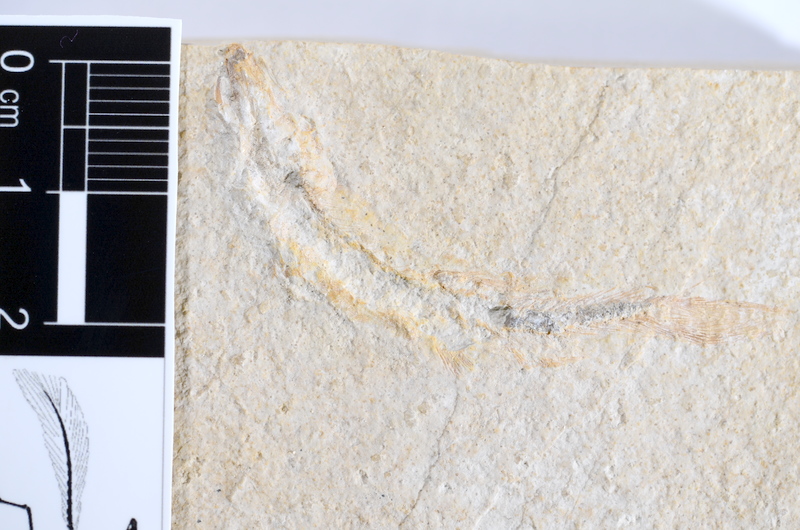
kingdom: Animalia
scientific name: Animalia
